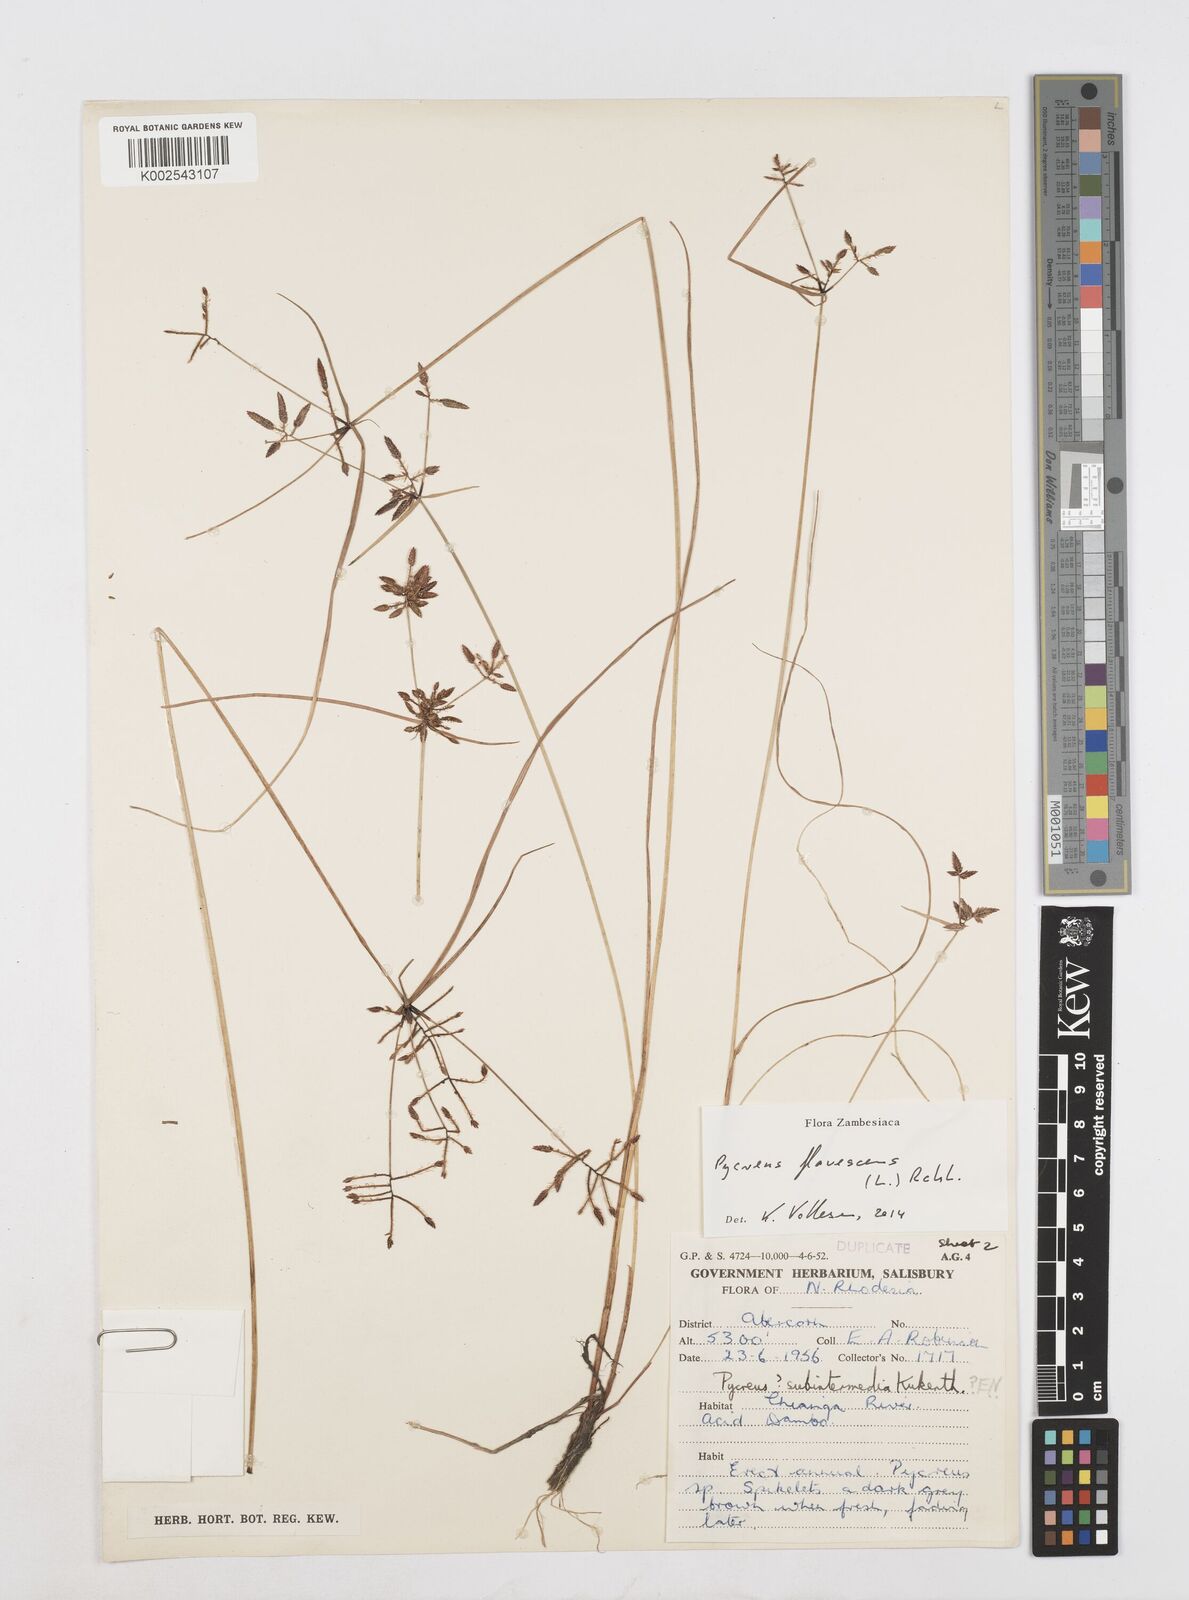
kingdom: Plantae
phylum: Tracheophyta
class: Liliopsida
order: Poales
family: Cyperaceae
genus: Cyperus
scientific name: Cyperus flavescens
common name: Yellow galingale
